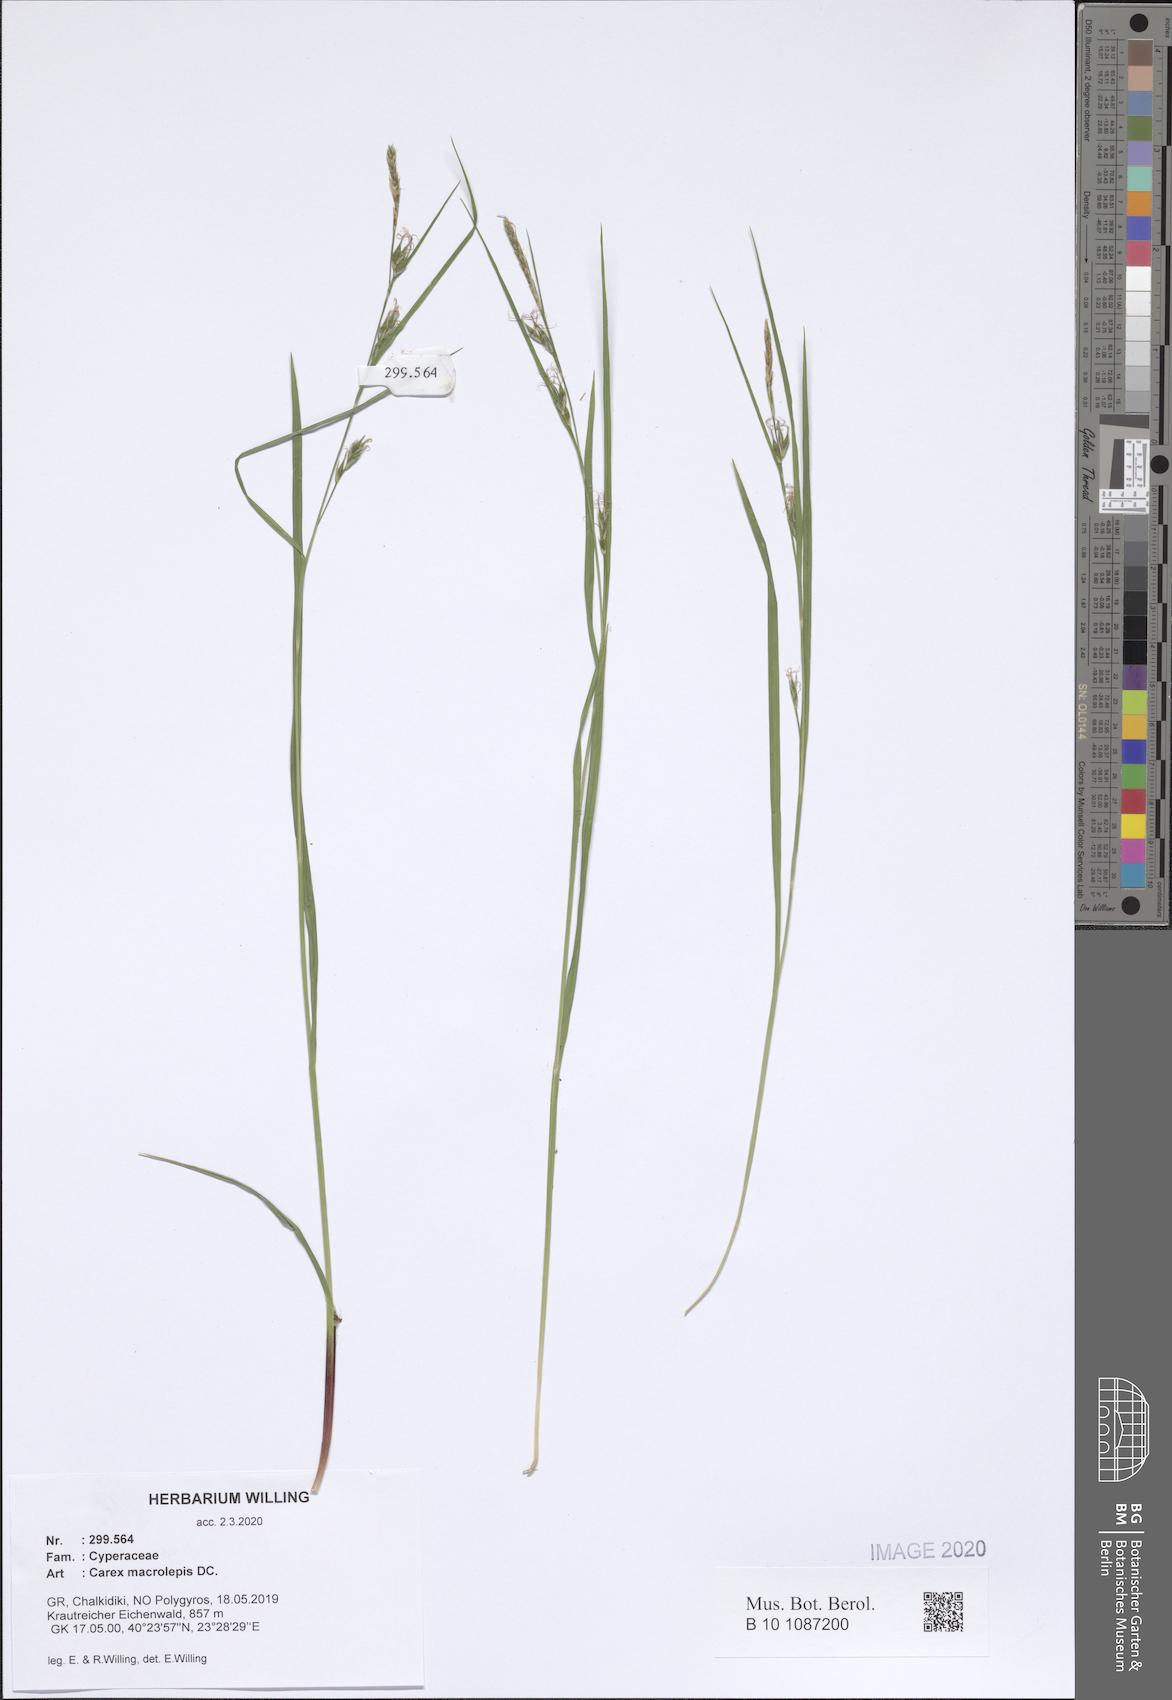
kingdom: Plantae
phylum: Tracheophyta
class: Liliopsida
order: Poales
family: Cyperaceae
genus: Carex
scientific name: Carex macrolepis
